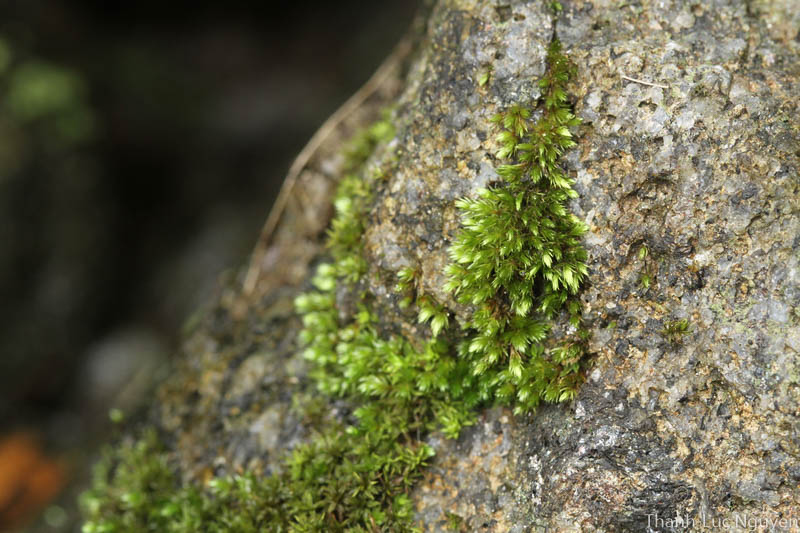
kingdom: Plantae
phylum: Bryophyta
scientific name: Bryophyta
